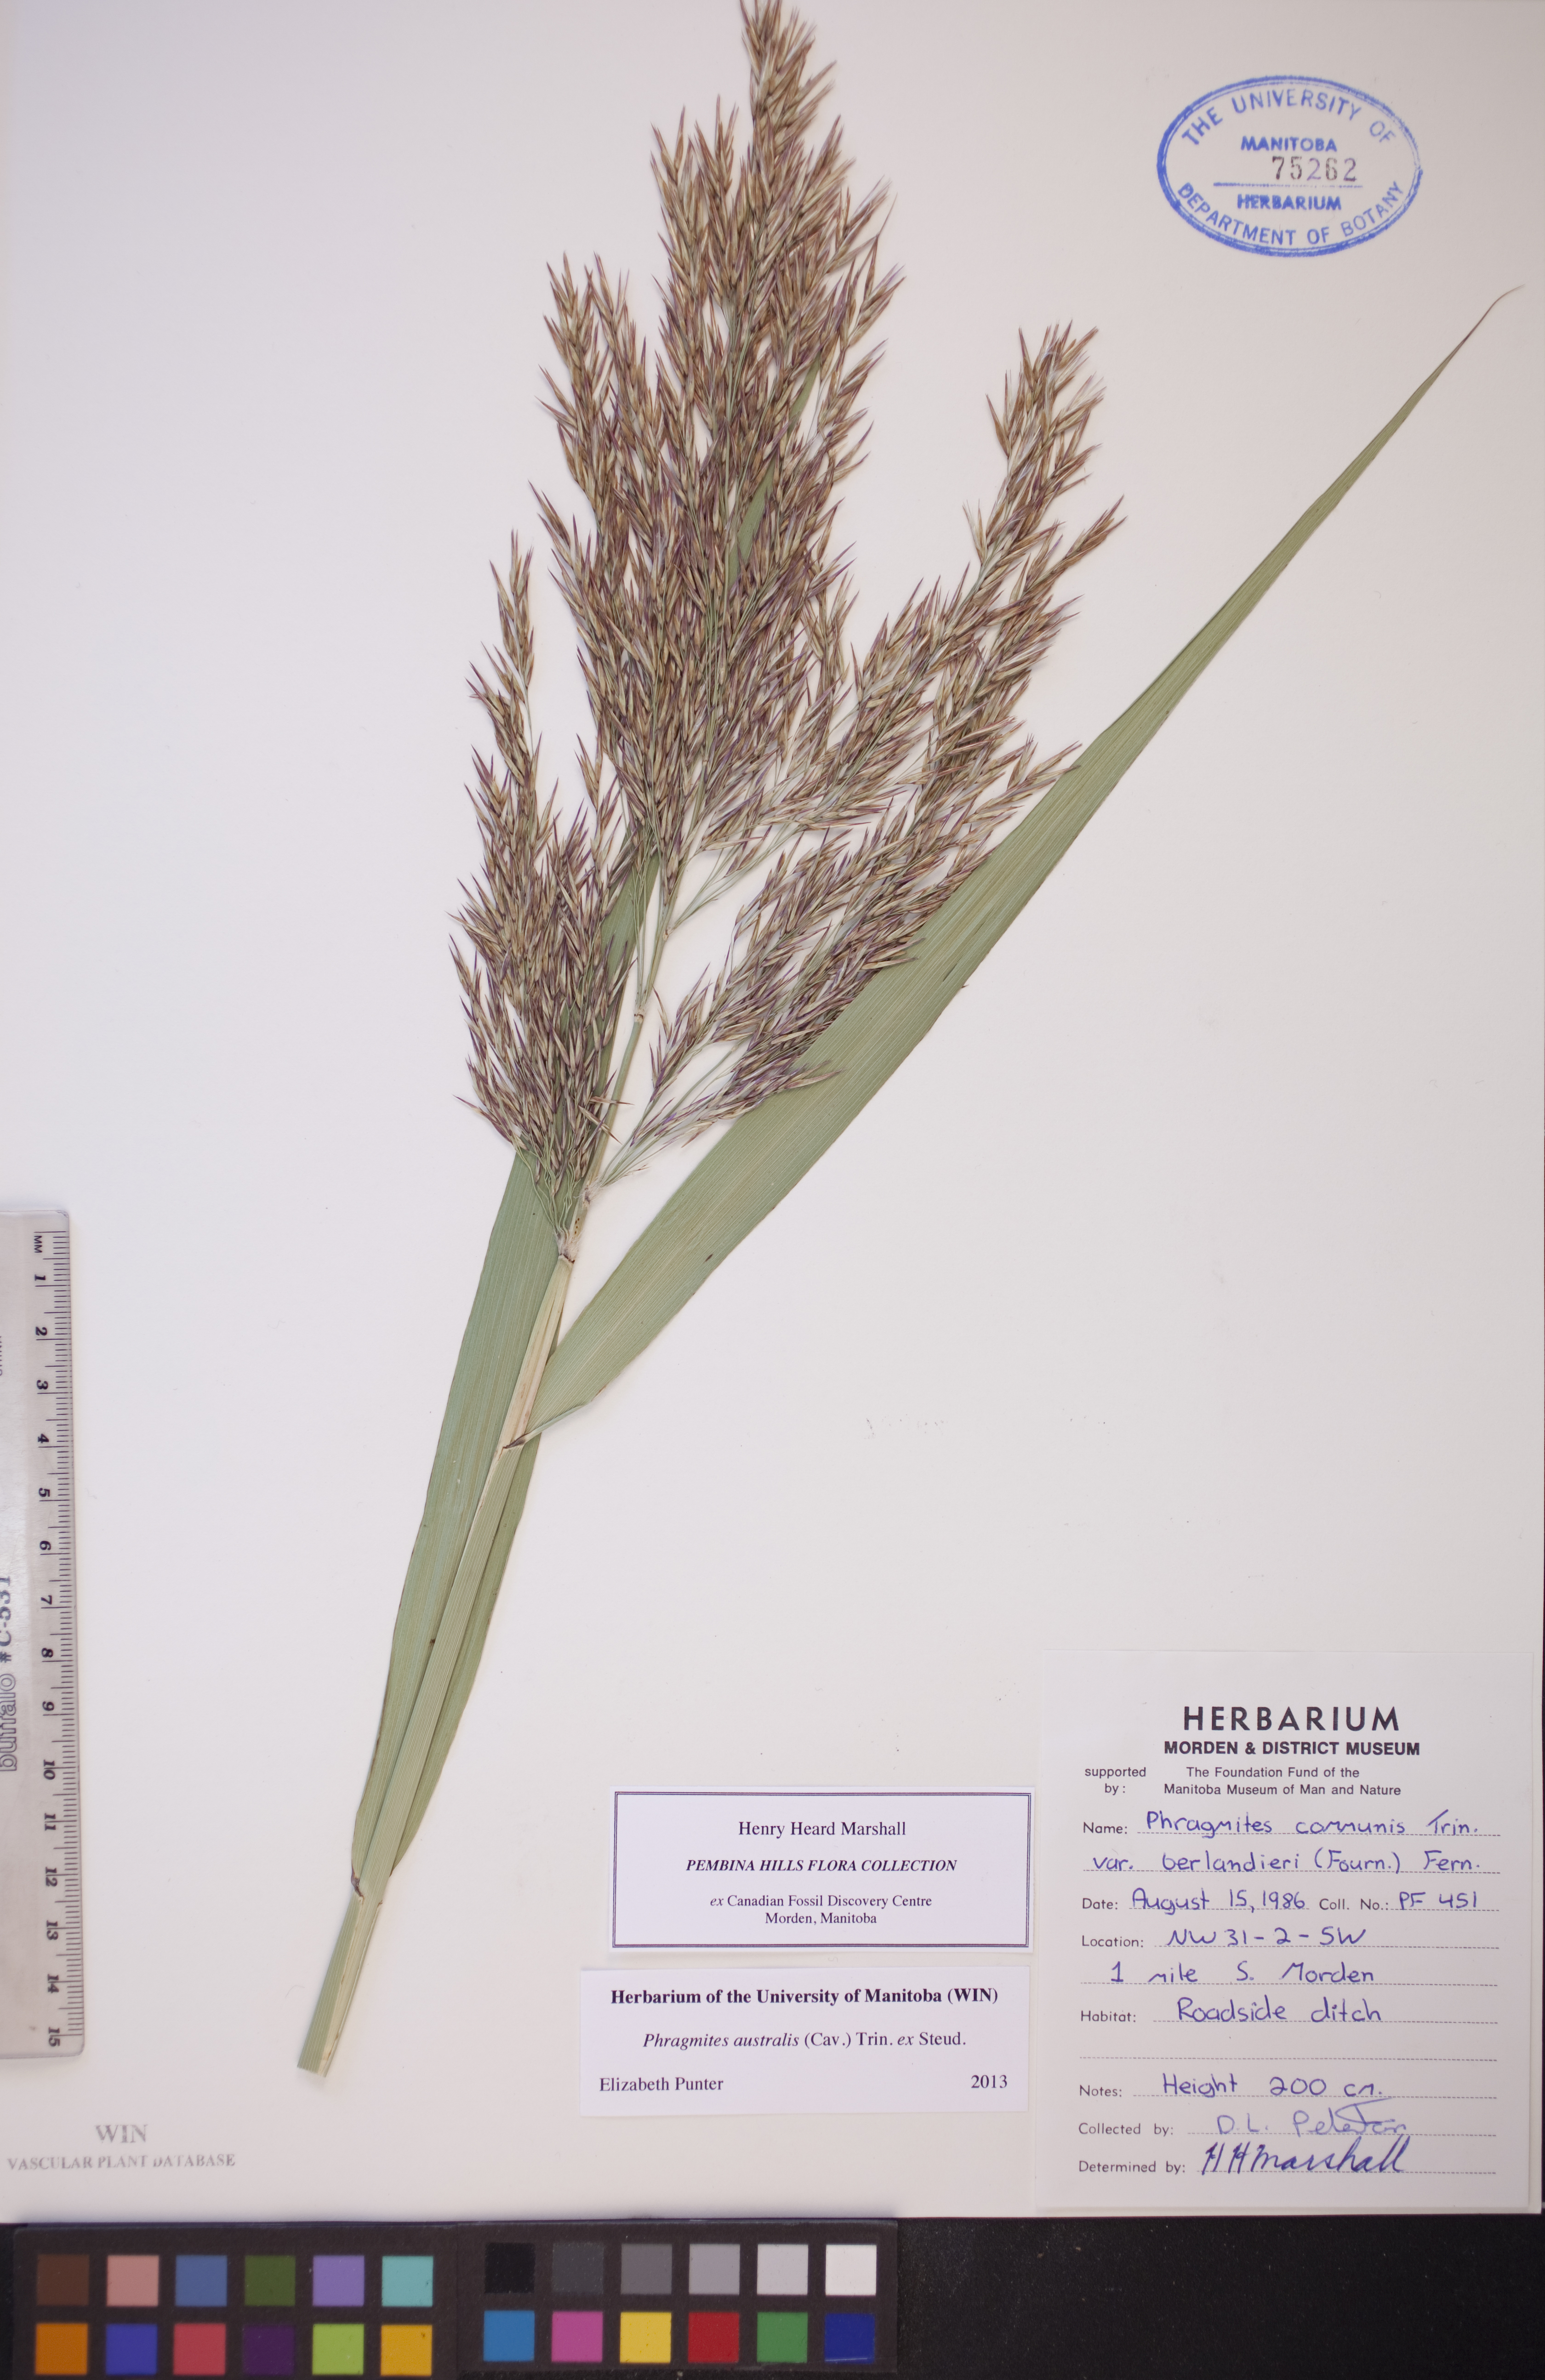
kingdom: Plantae
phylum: Tracheophyta
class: Liliopsida
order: Poales
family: Poaceae
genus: Phragmites
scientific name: Phragmites australis
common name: Common reed
